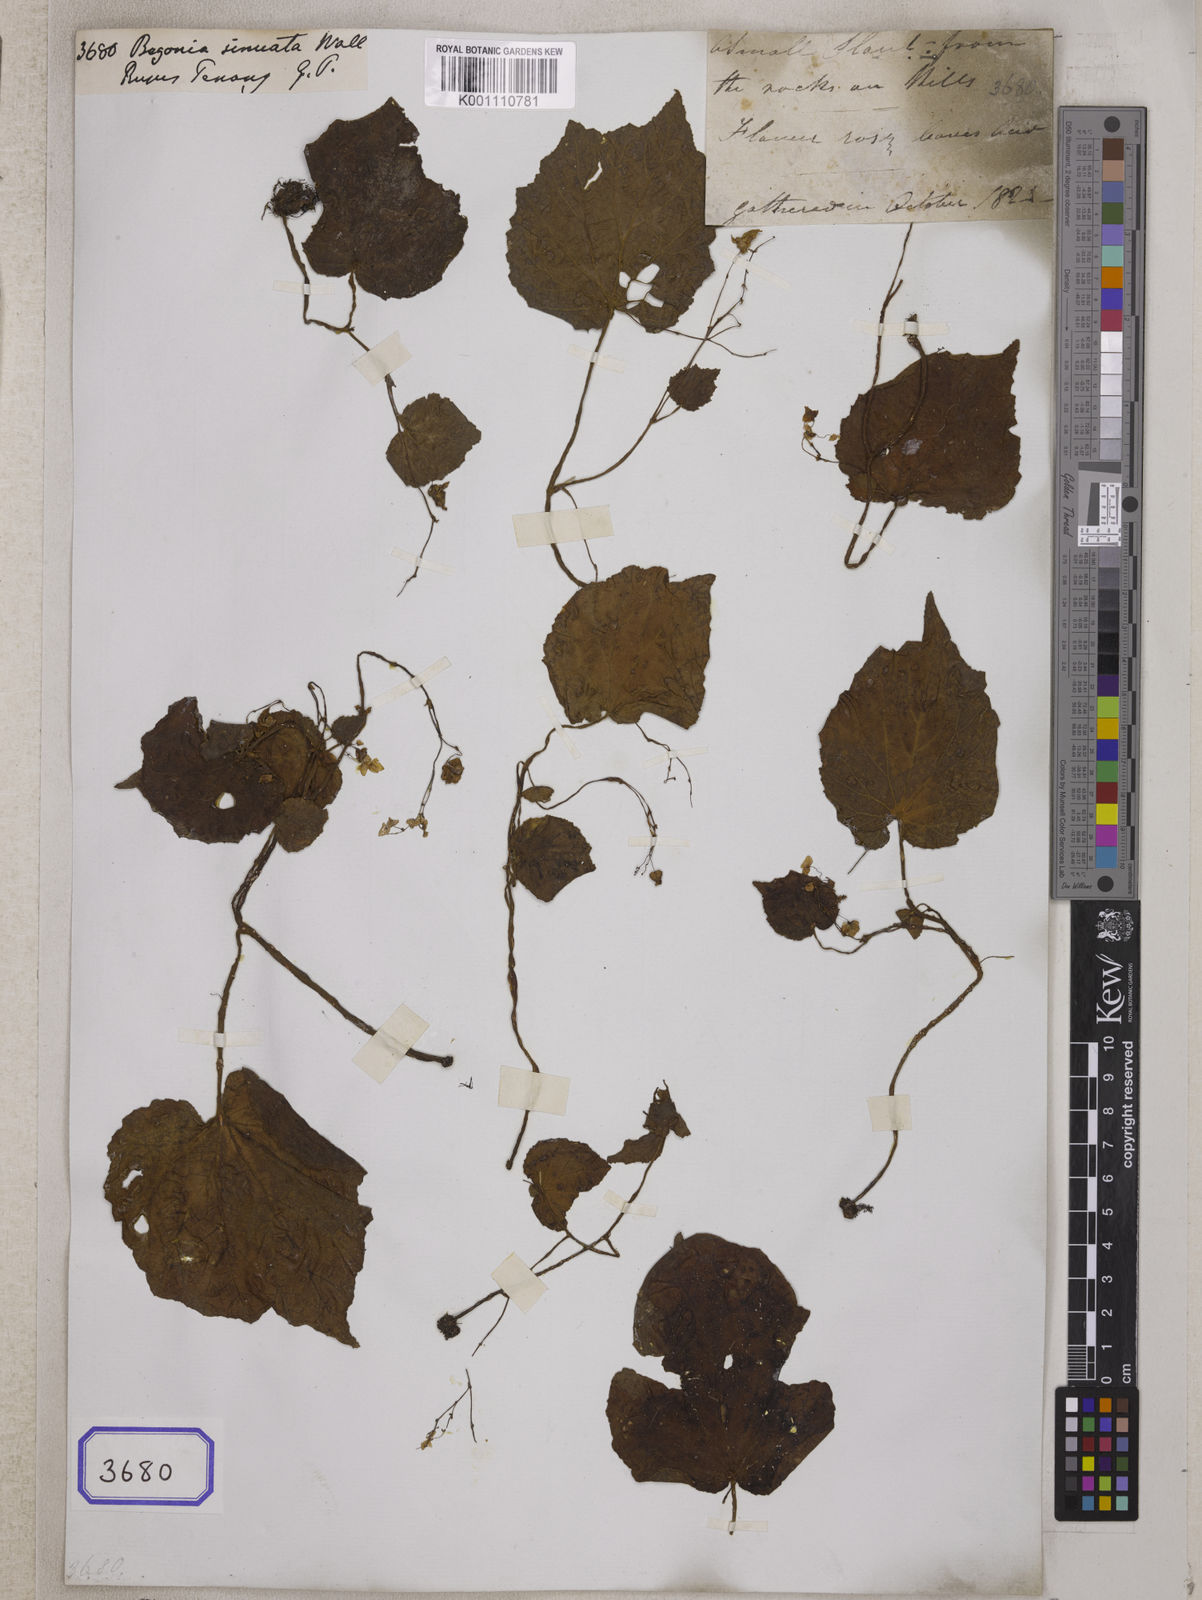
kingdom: Plantae
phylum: Tracheophyta
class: Magnoliopsida
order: Cucurbitales
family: Begoniaceae
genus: Begonia
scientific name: Begonia
